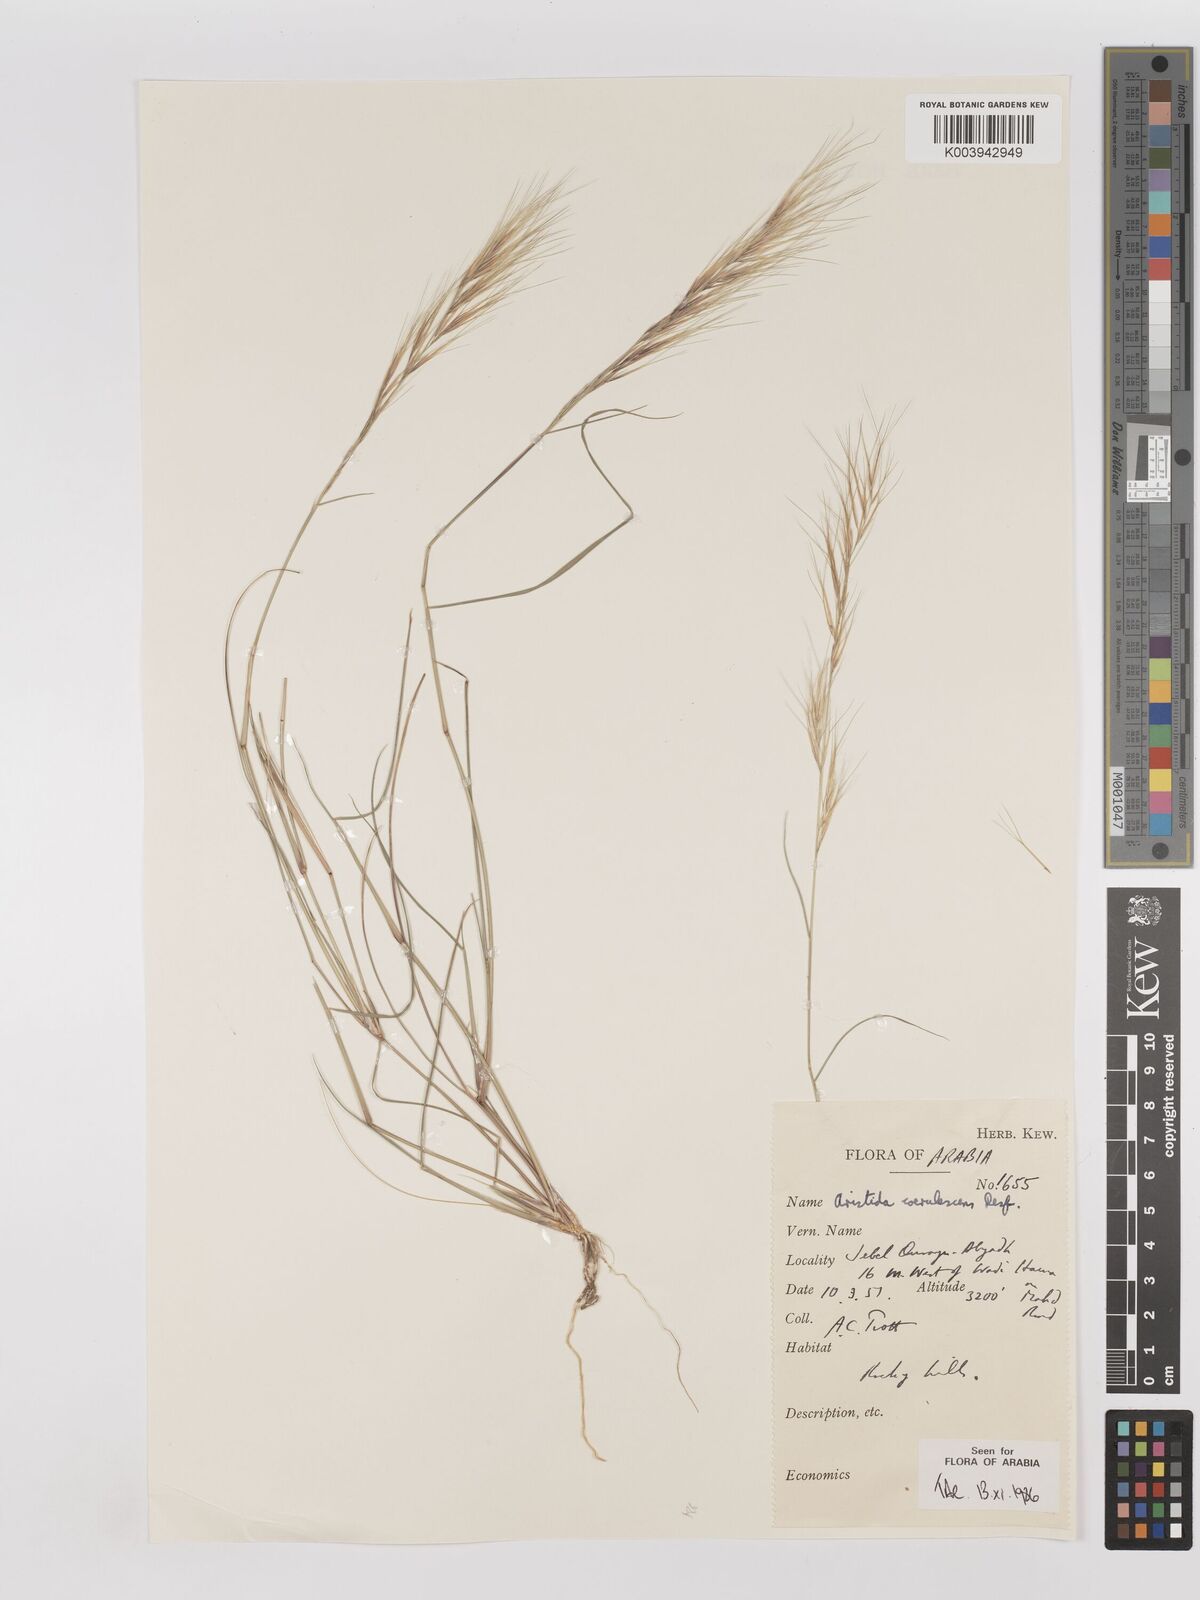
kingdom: Plantae
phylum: Tracheophyta
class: Liliopsida
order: Poales
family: Poaceae
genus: Aristida
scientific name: Aristida adscensionis
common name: Sixweeks threeawn
